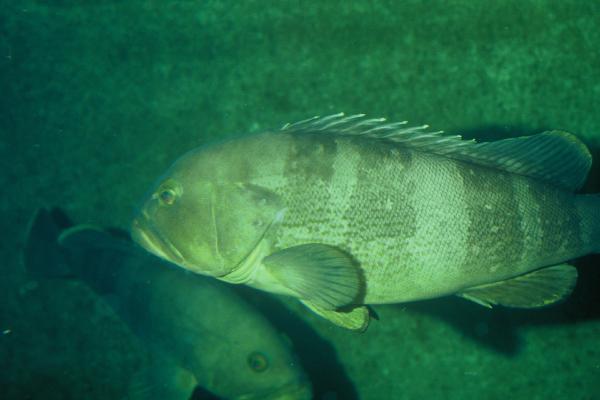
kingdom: Animalia
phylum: Chordata
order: Perciformes
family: Serranidae
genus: Epinephelus
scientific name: Epinephelus awoara
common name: Yellow grouper
